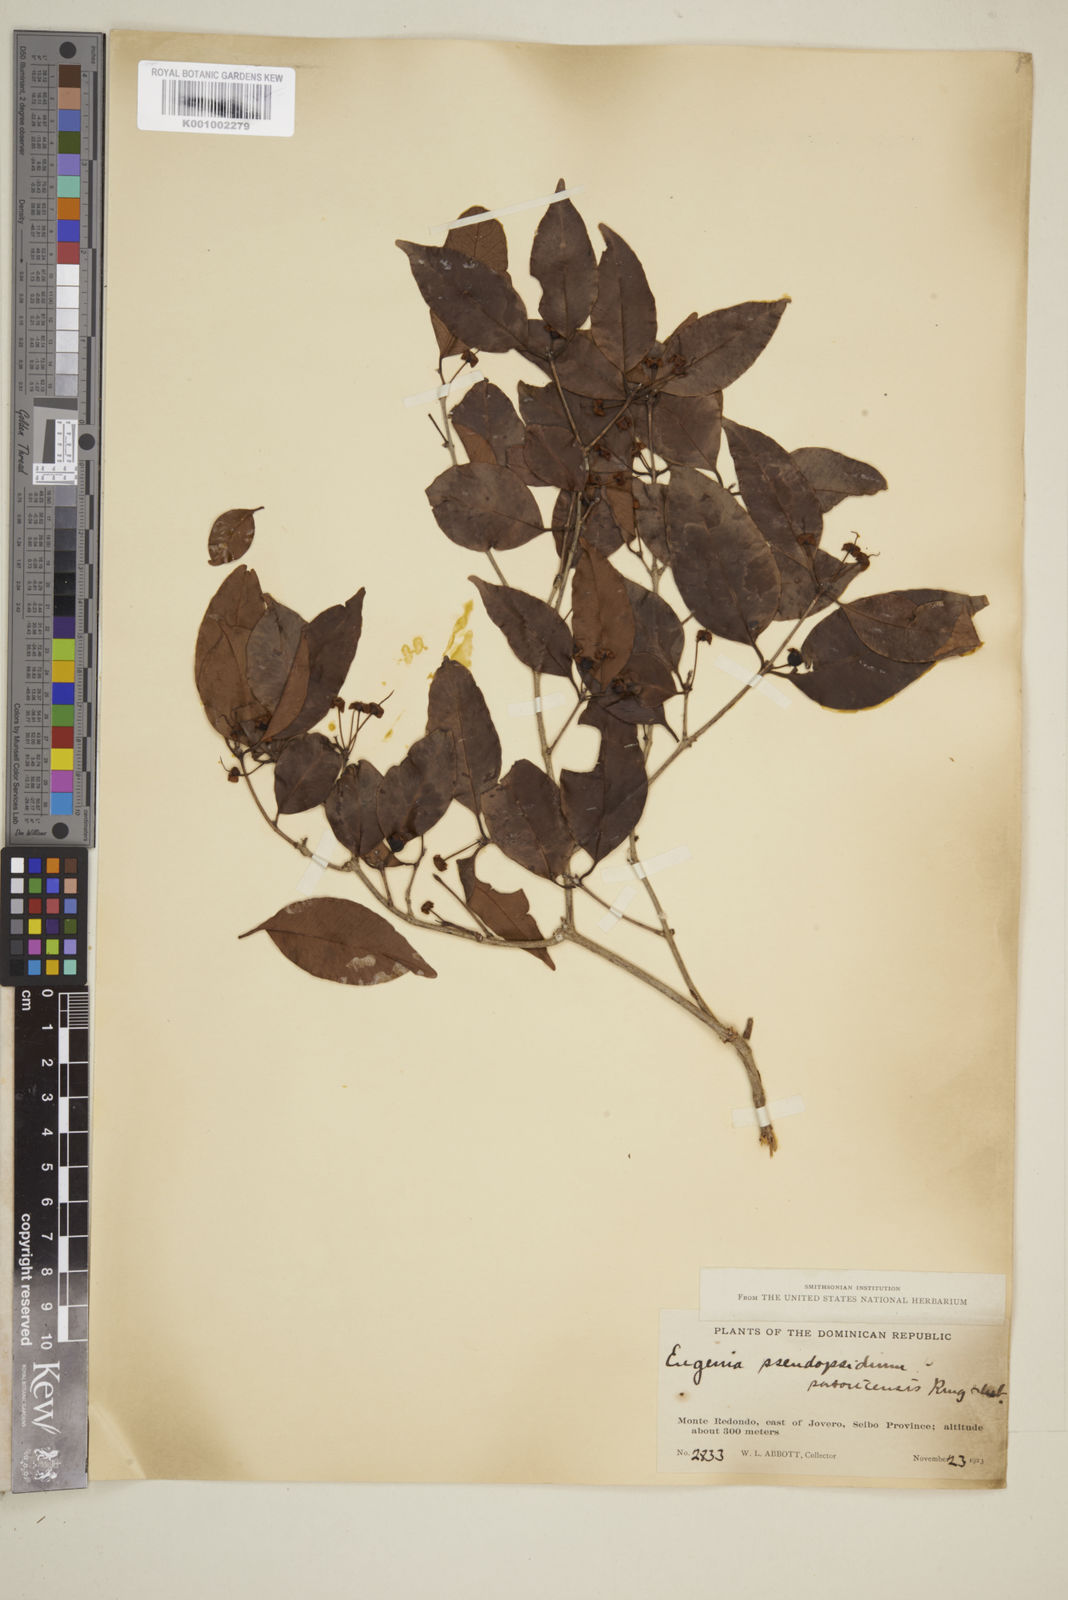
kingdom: Plantae
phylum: Tracheophyta
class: Magnoliopsida
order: Myrtales
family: Myrtaceae
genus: Eugenia
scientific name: Eugenia pseudopsidium
